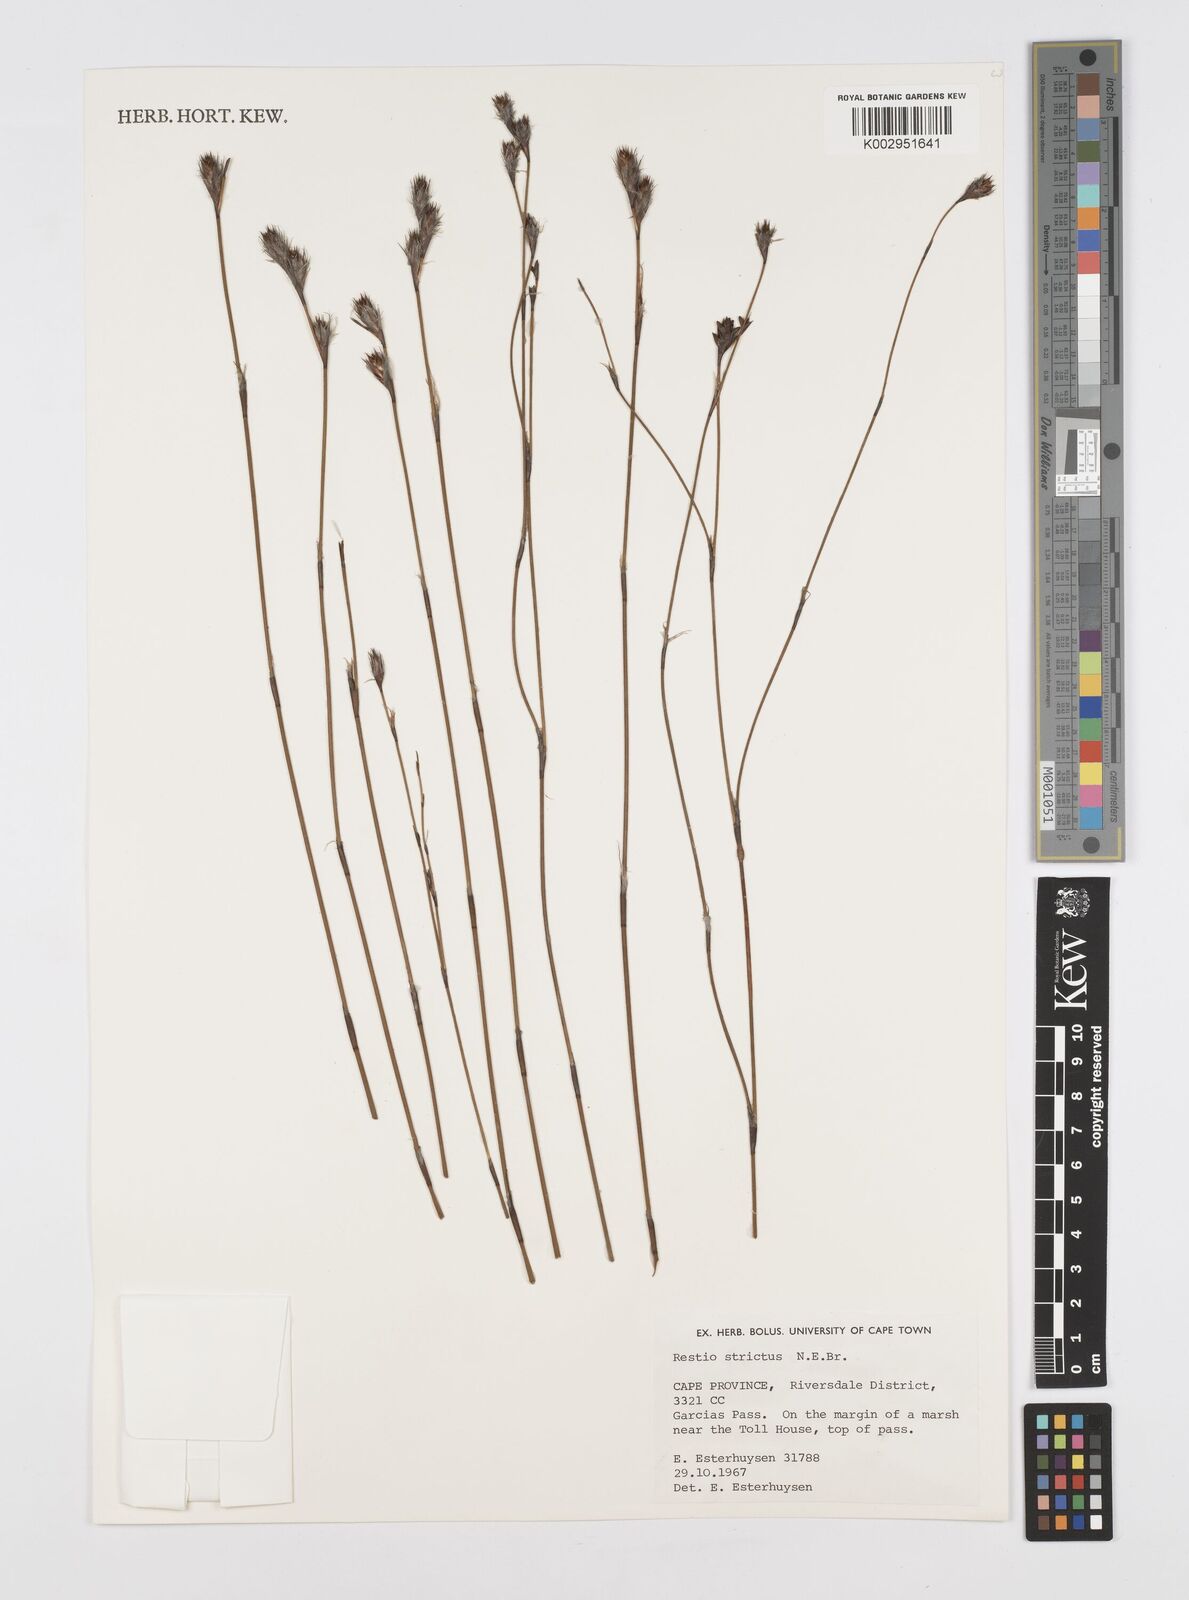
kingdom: Plantae
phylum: Tracheophyta
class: Liliopsida
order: Poales
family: Restionaceae
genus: Restio
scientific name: Restio strictus
